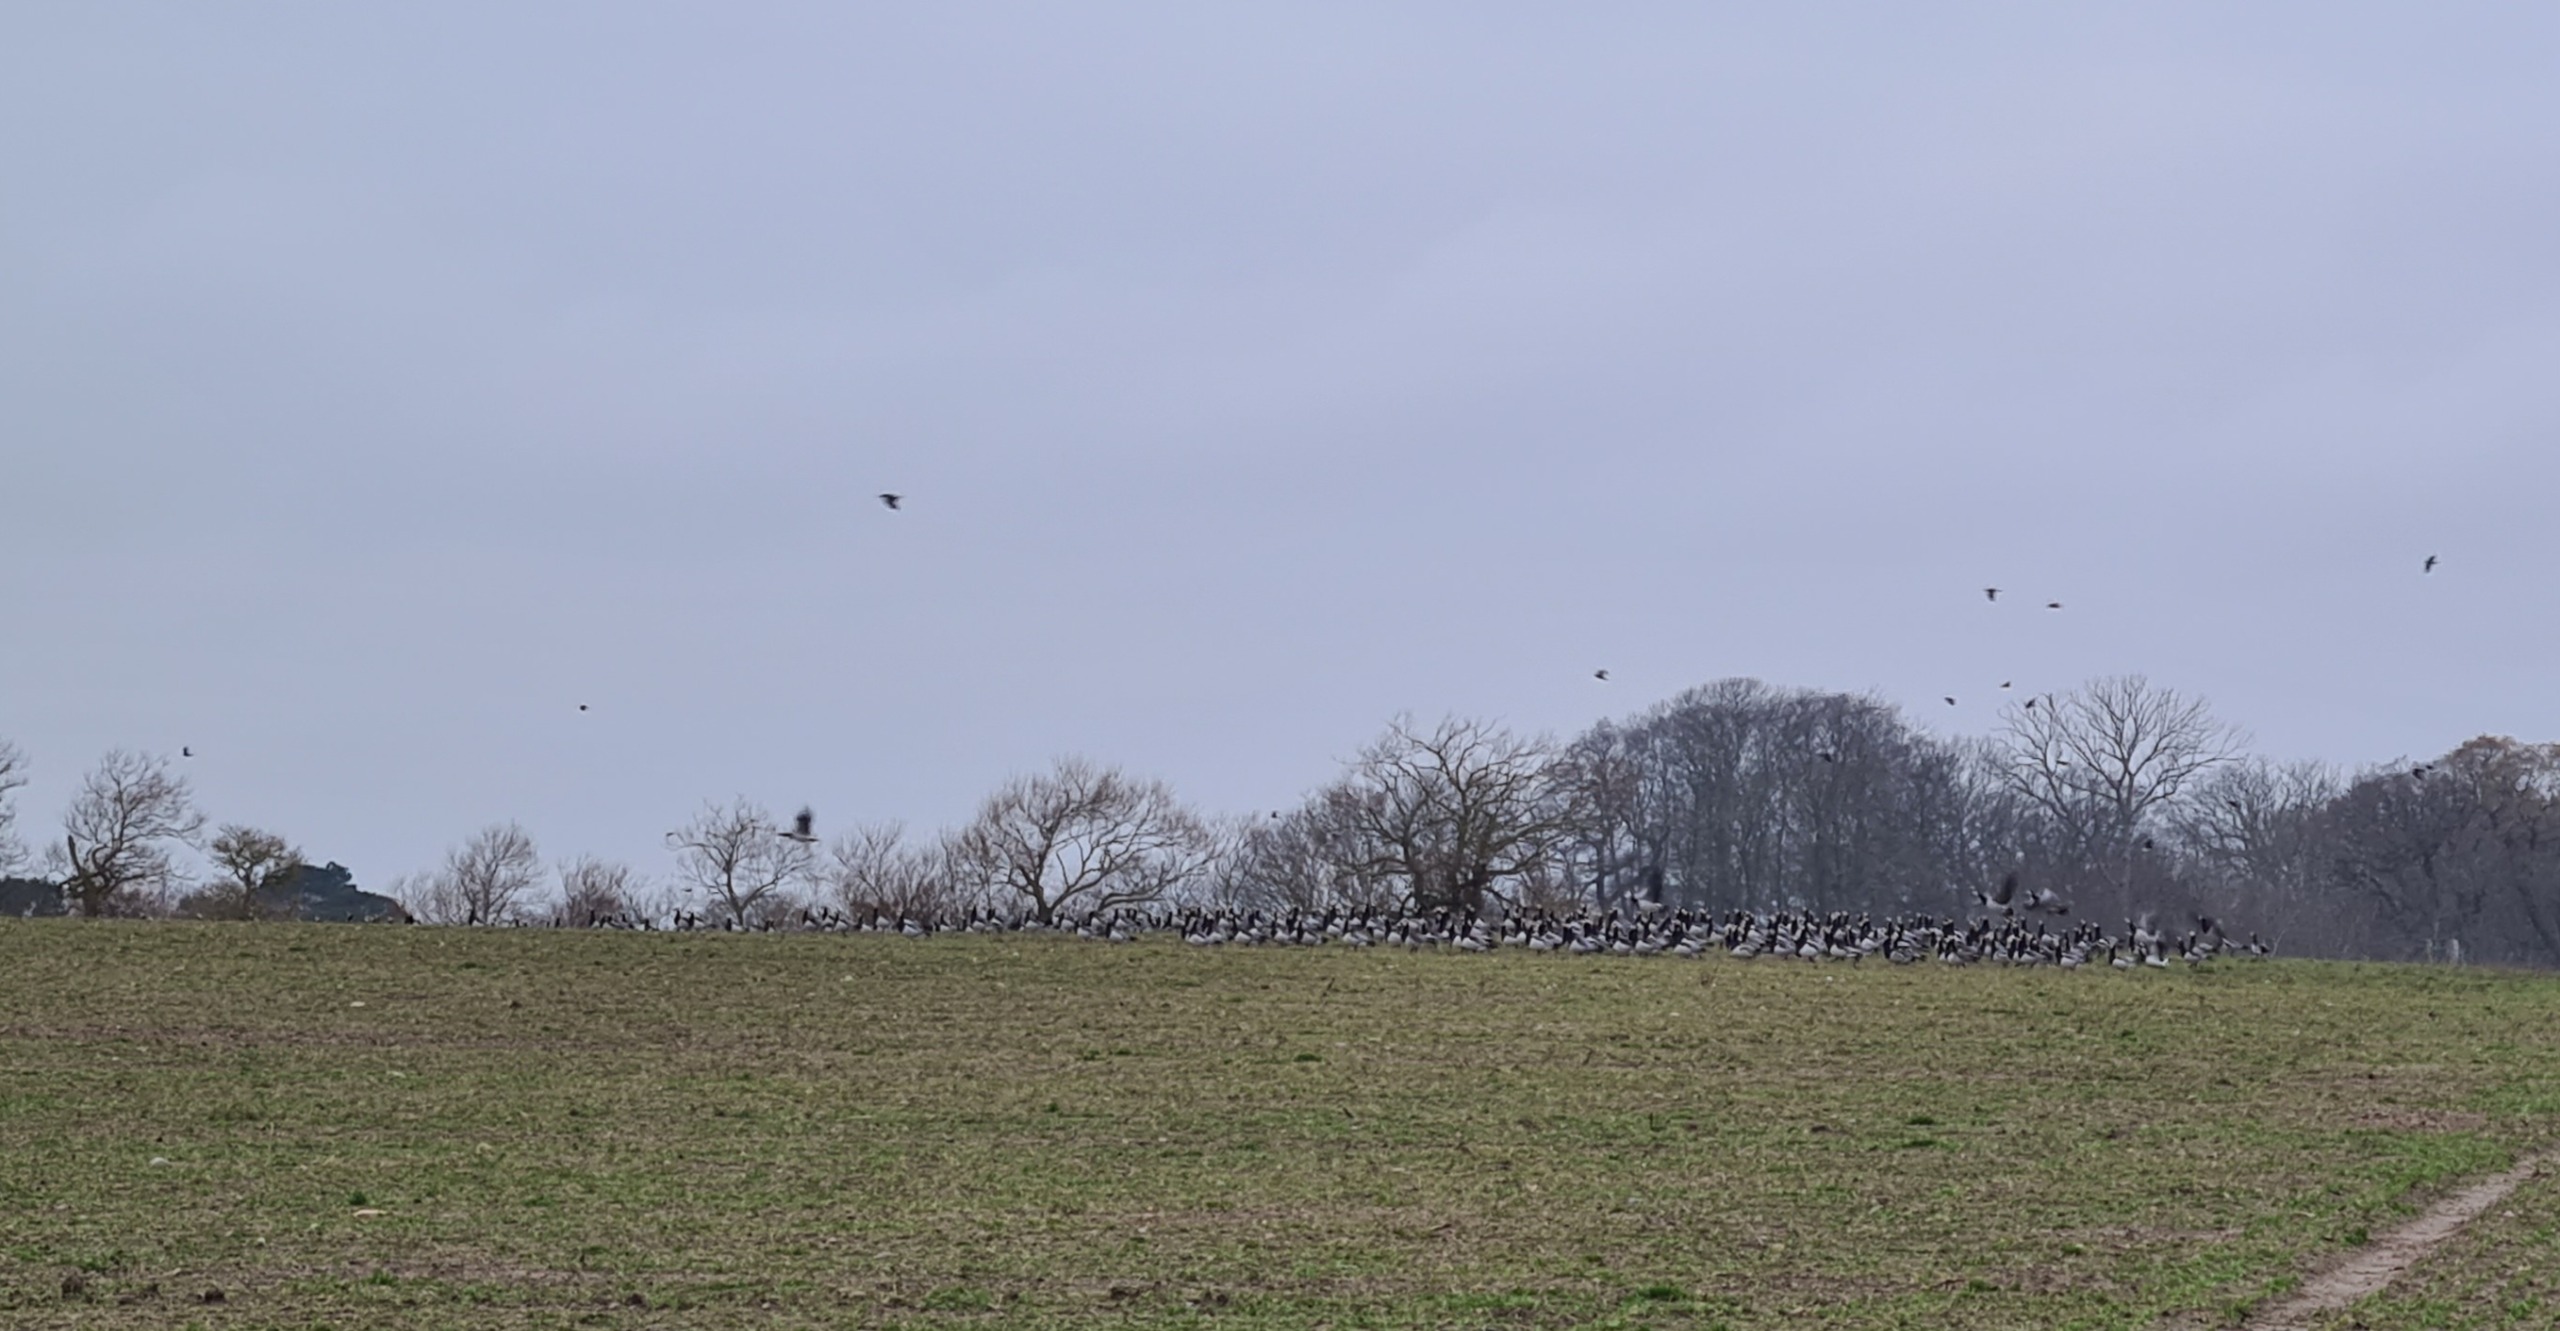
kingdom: Animalia
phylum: Chordata
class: Aves
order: Anseriformes
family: Anatidae
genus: Branta
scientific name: Branta leucopsis
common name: Bramgås
